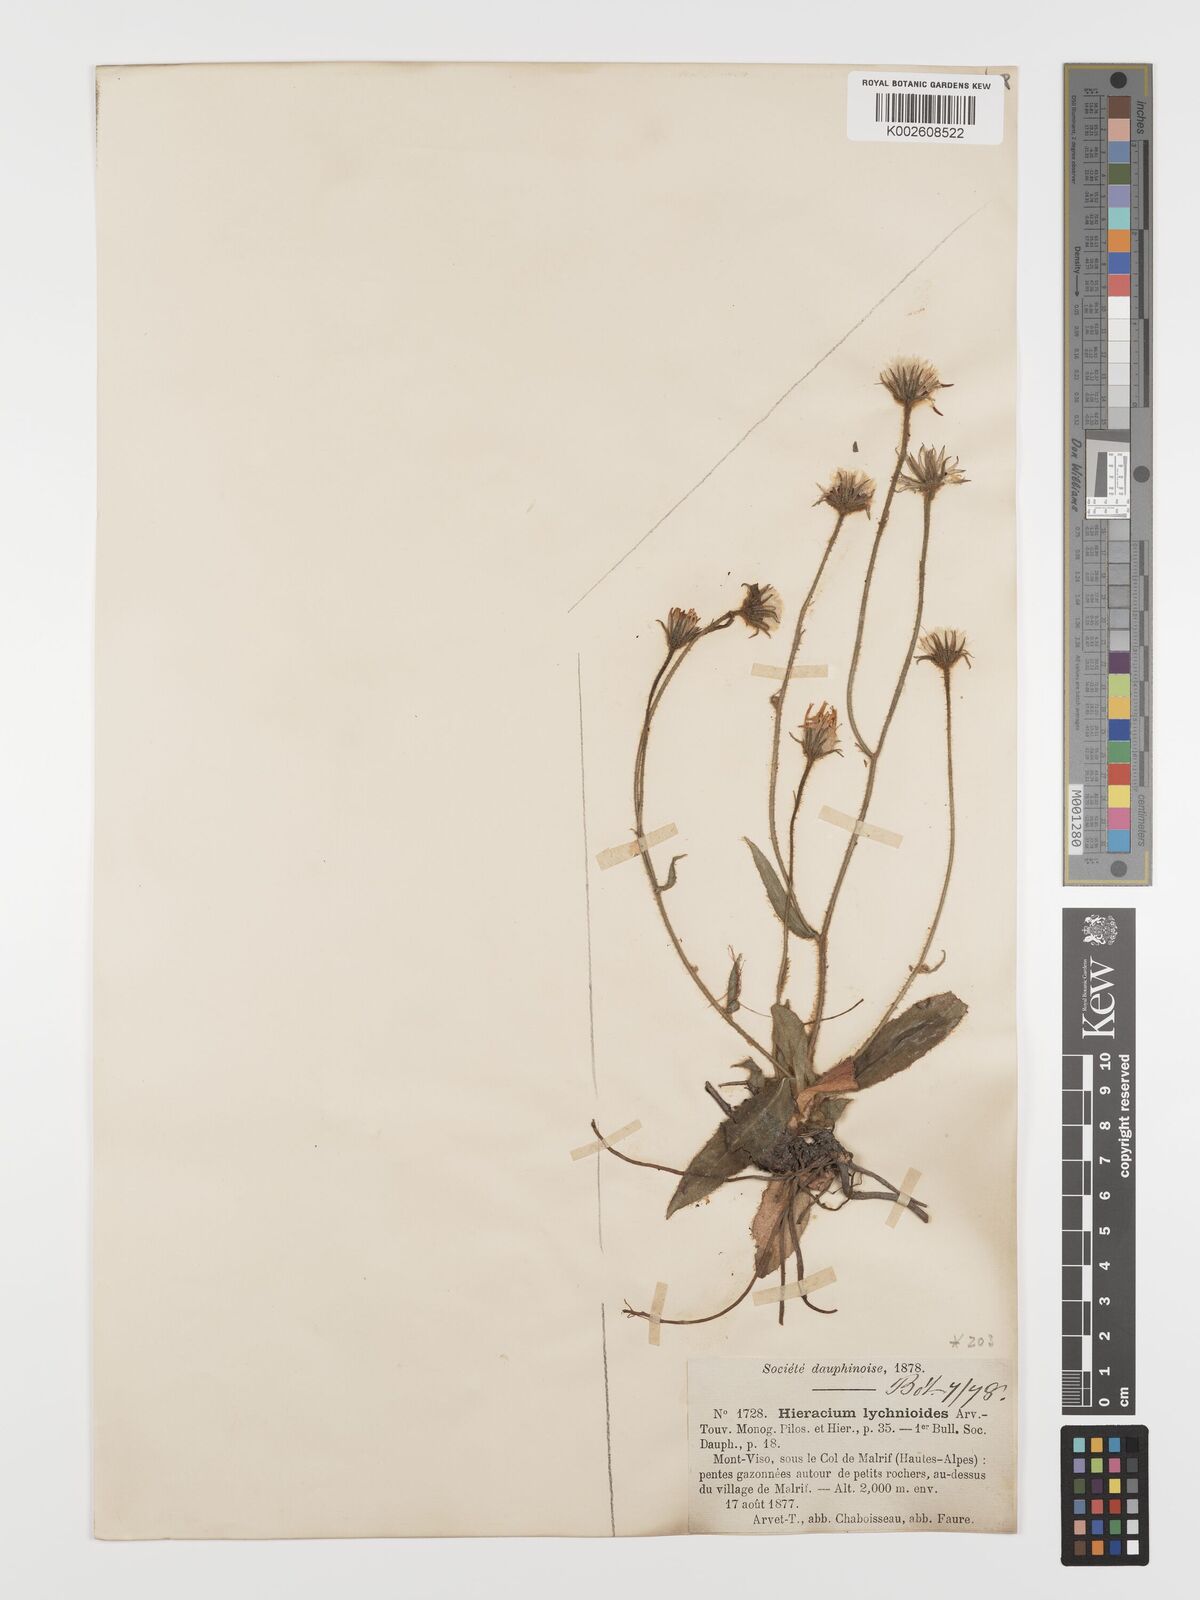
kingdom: Plantae
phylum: Tracheophyta
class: Magnoliopsida
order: Asterales
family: Asteraceae
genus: Hieracium
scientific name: Hieracium lychnioides
